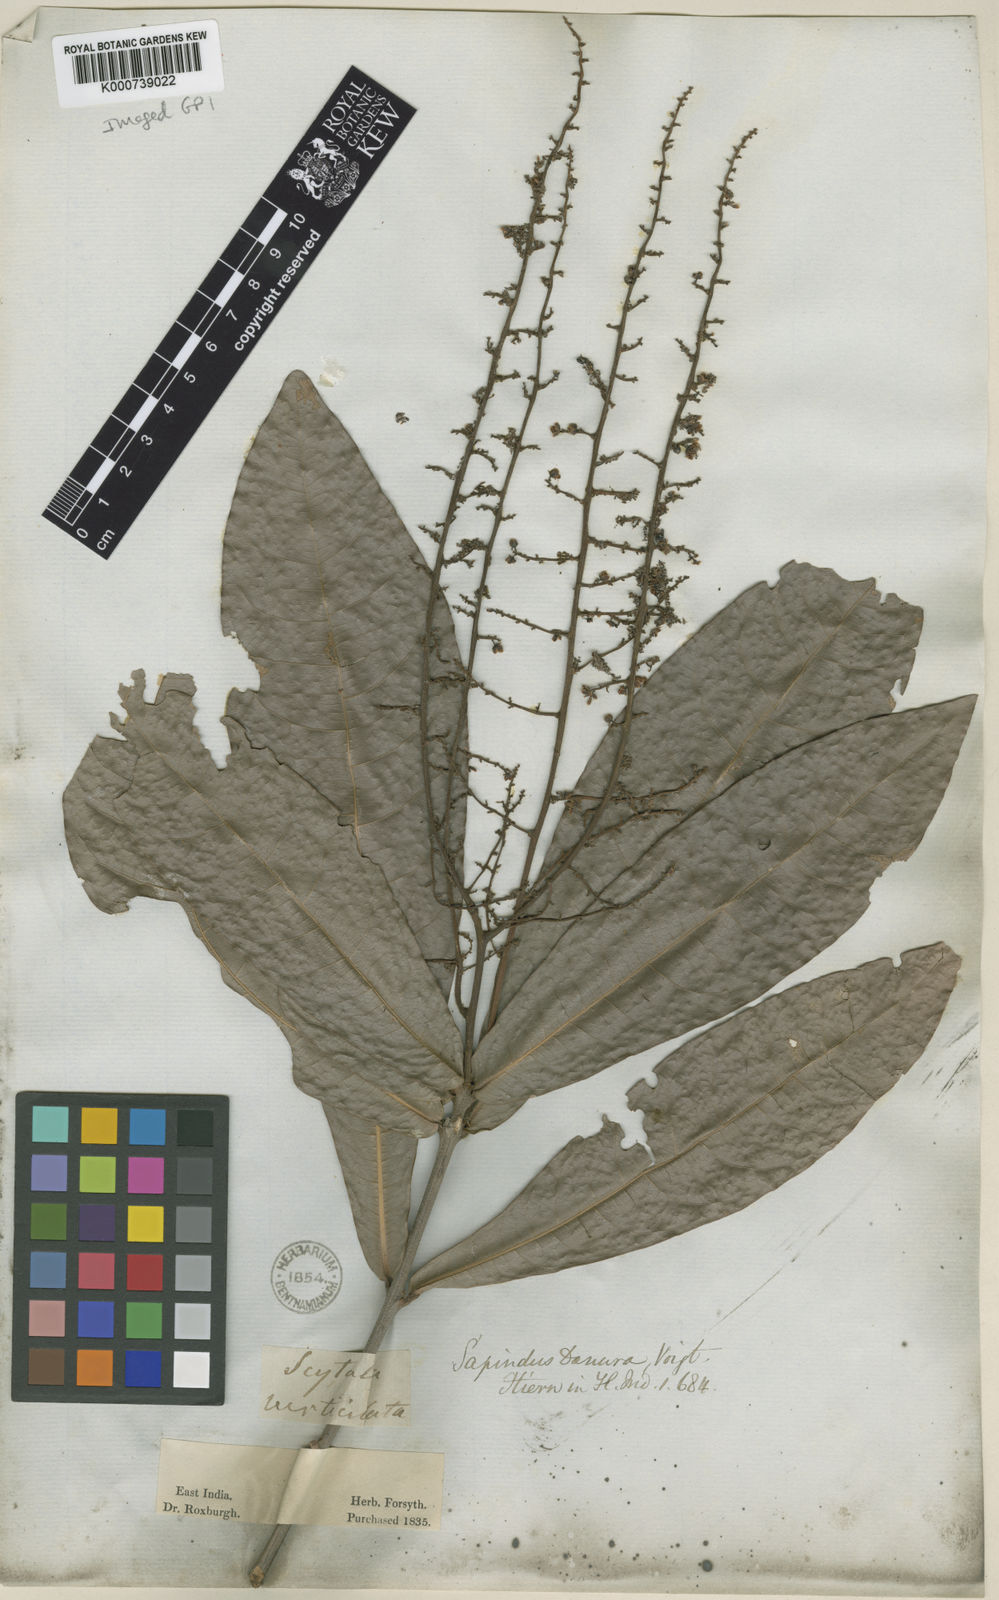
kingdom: Plantae
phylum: Tracheophyta
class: Magnoliopsida
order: Sapindales
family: Sapindaceae
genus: Lepisanthes
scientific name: Lepisanthes senegalensis
